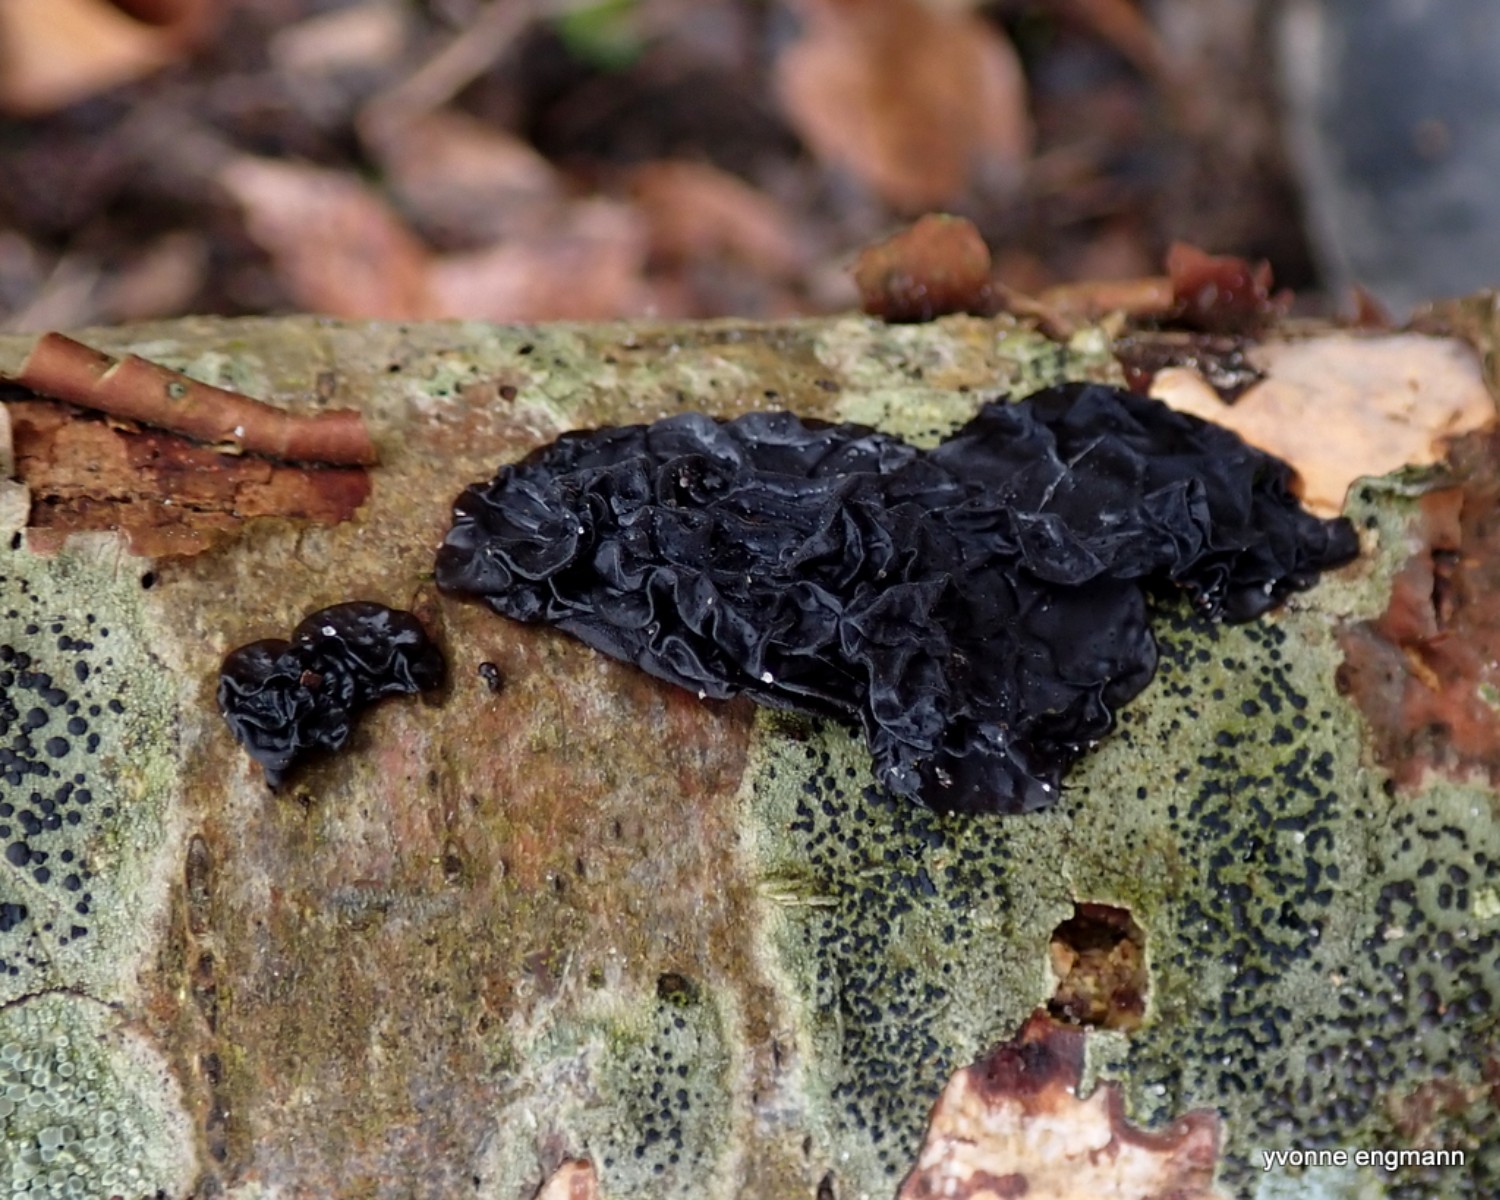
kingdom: Fungi
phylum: Basidiomycota
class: Agaricomycetes
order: Auriculariales
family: Auriculariaceae
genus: Exidia
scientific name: Exidia glandulosa
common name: ege-bævretop
